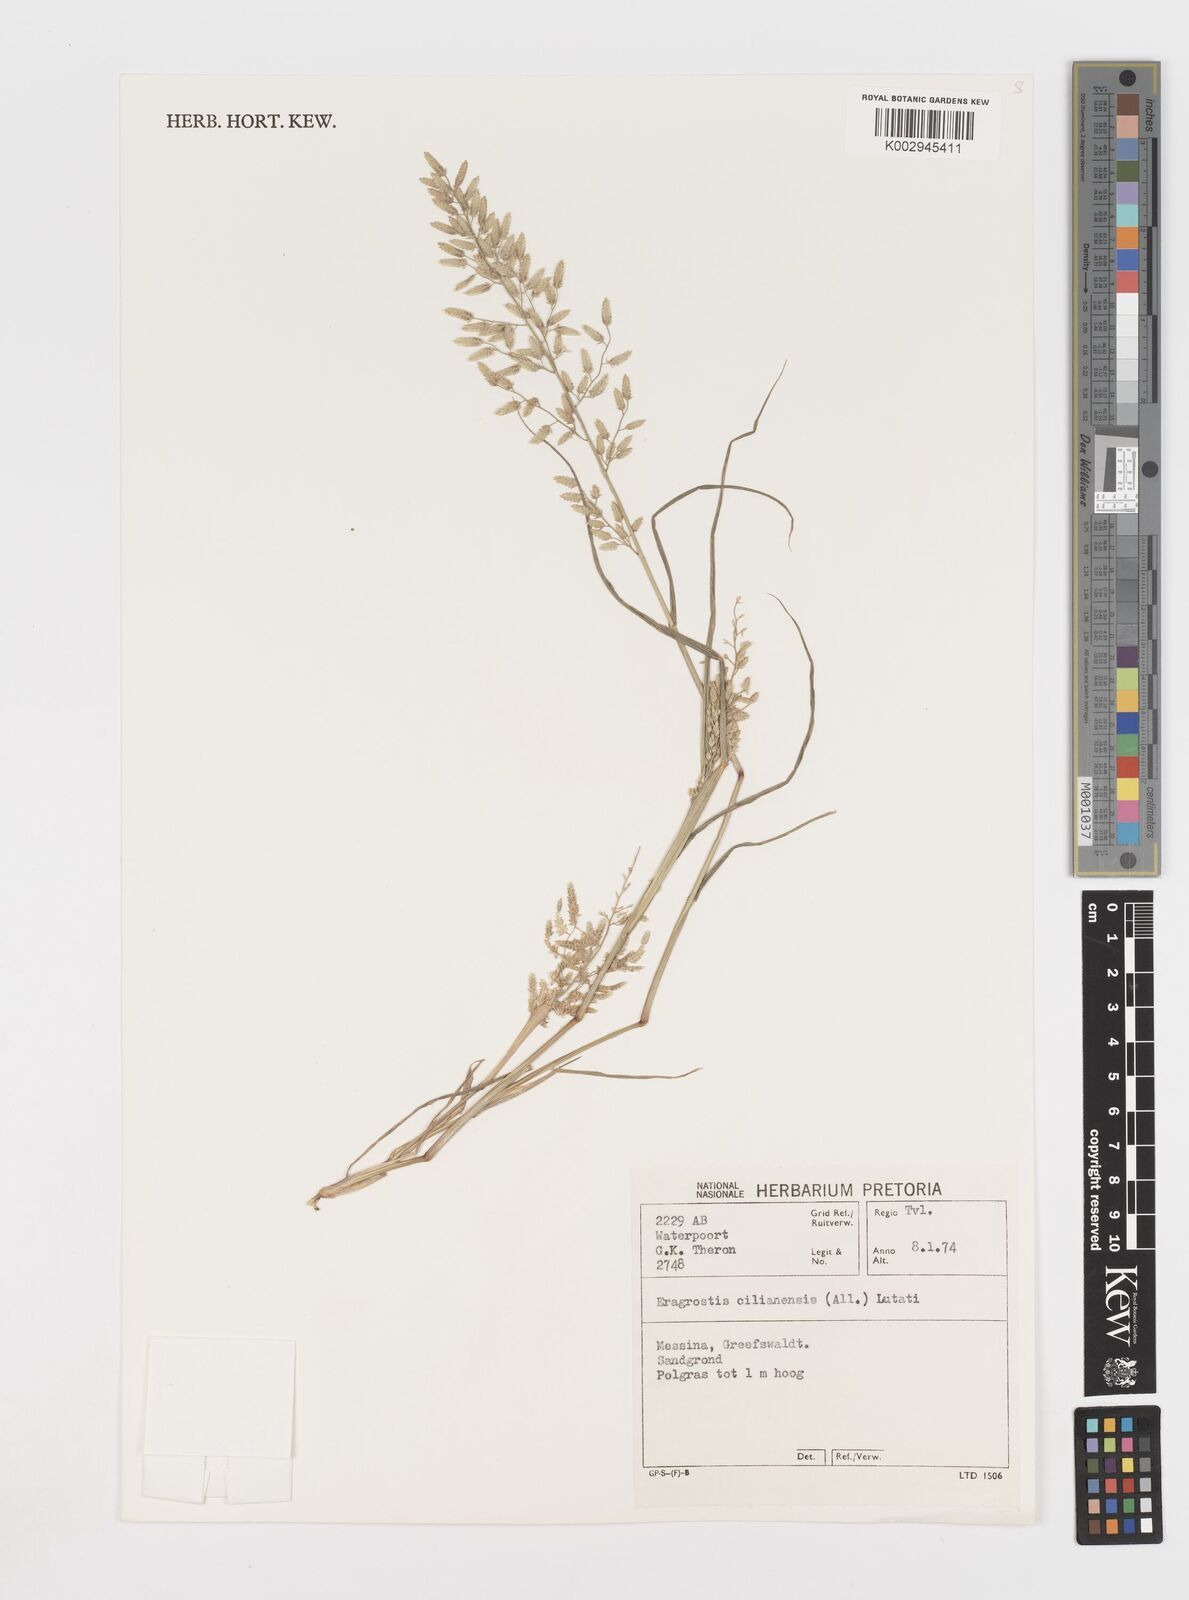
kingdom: Plantae
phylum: Tracheophyta
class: Liliopsida
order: Poales
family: Poaceae
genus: Eragrostis
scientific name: Eragrostis cilianensis
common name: Stinkgrass
